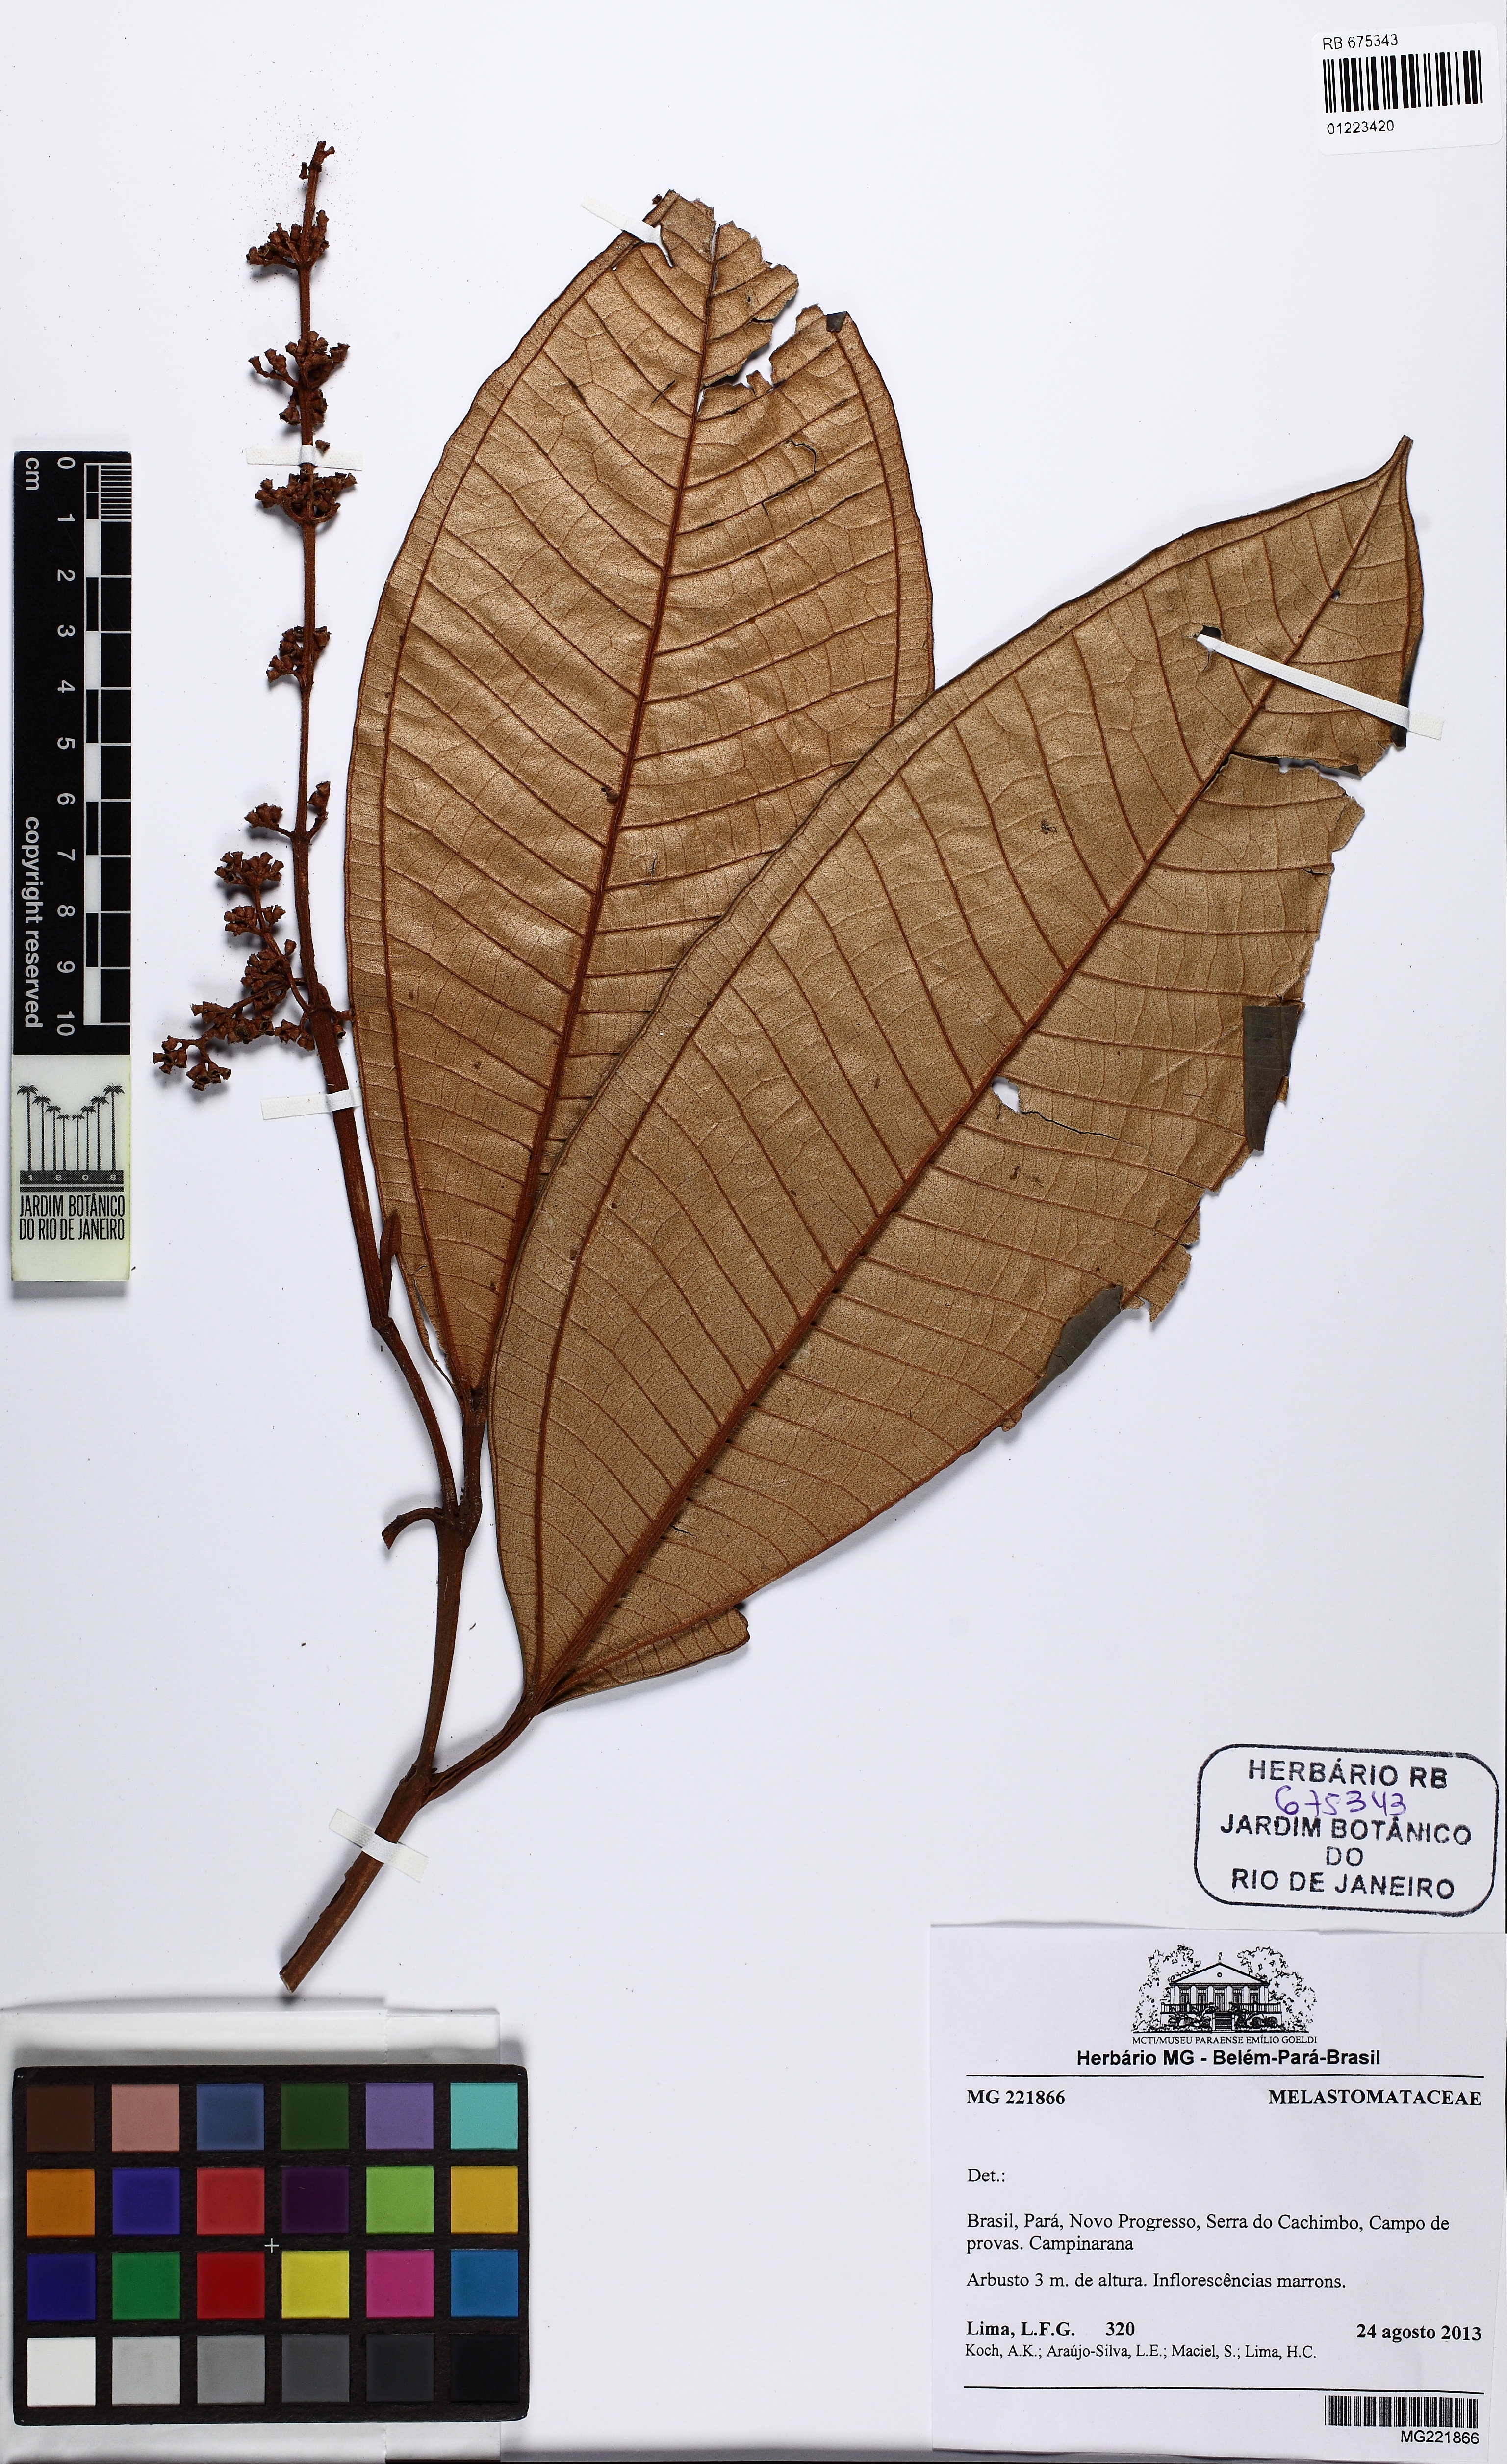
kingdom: Plantae
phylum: Tracheophyta
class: Magnoliopsida
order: Myrtales
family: Melastomataceae
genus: Miconia
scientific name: Miconia renatogoldenbergii
